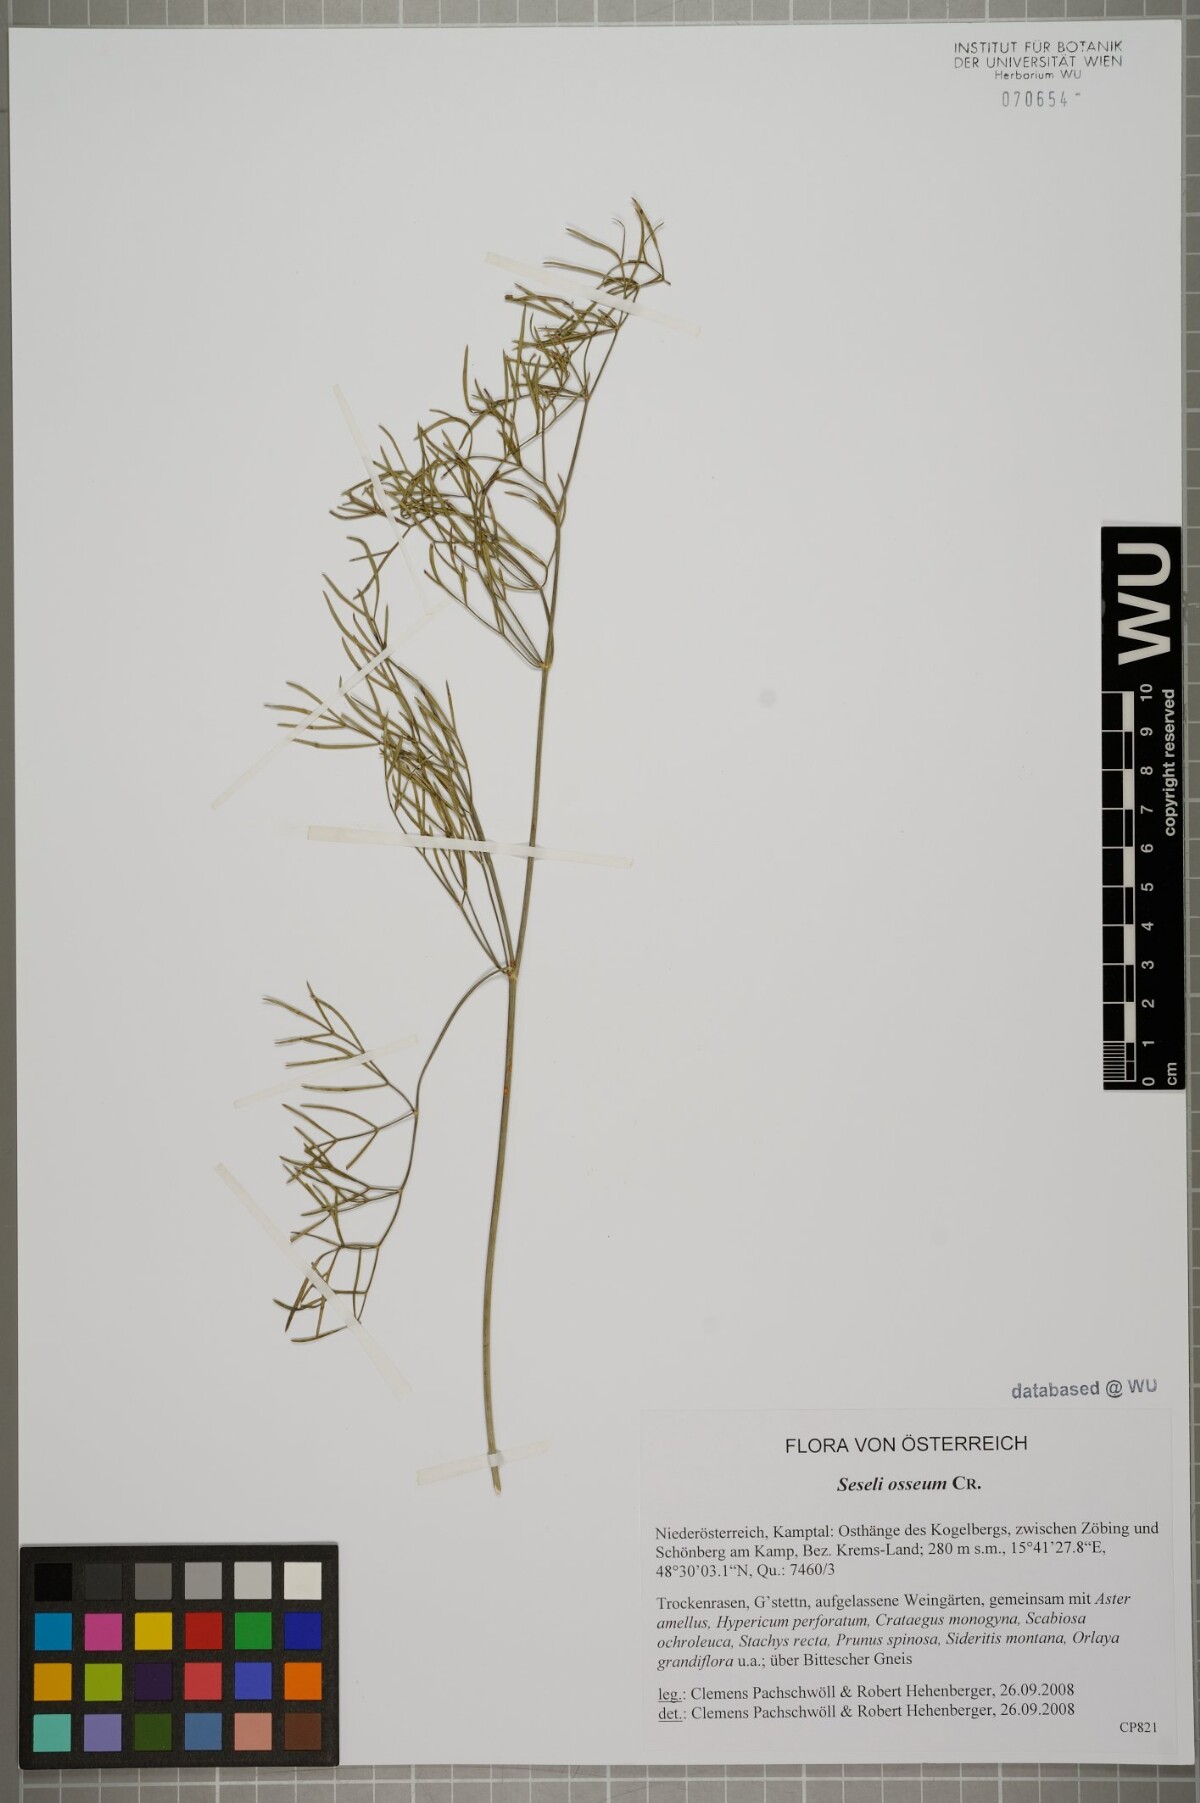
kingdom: Plantae
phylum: Tracheophyta
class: Magnoliopsida
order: Apiales
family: Apiaceae
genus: Seseli
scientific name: Seseli osseum
